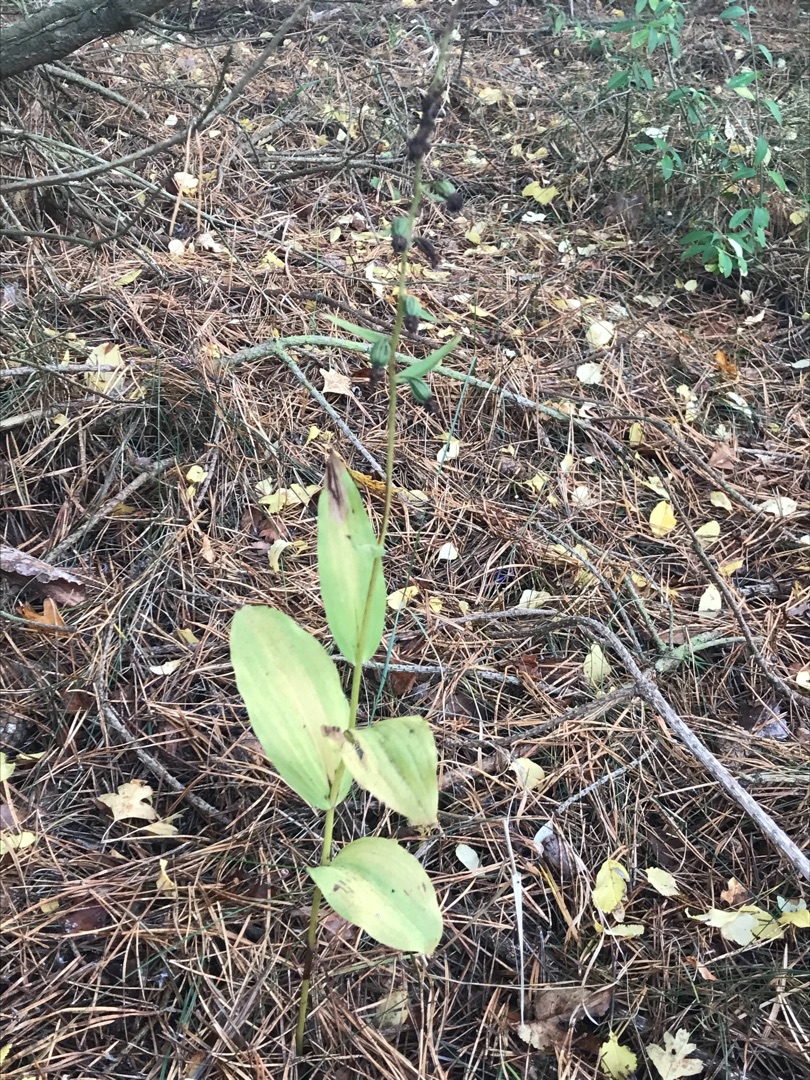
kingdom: Plantae
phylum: Tracheophyta
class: Liliopsida
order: Asparagales
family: Orchidaceae
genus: Epipactis
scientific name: Epipactis helleborine
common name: Skov-hullæbe
